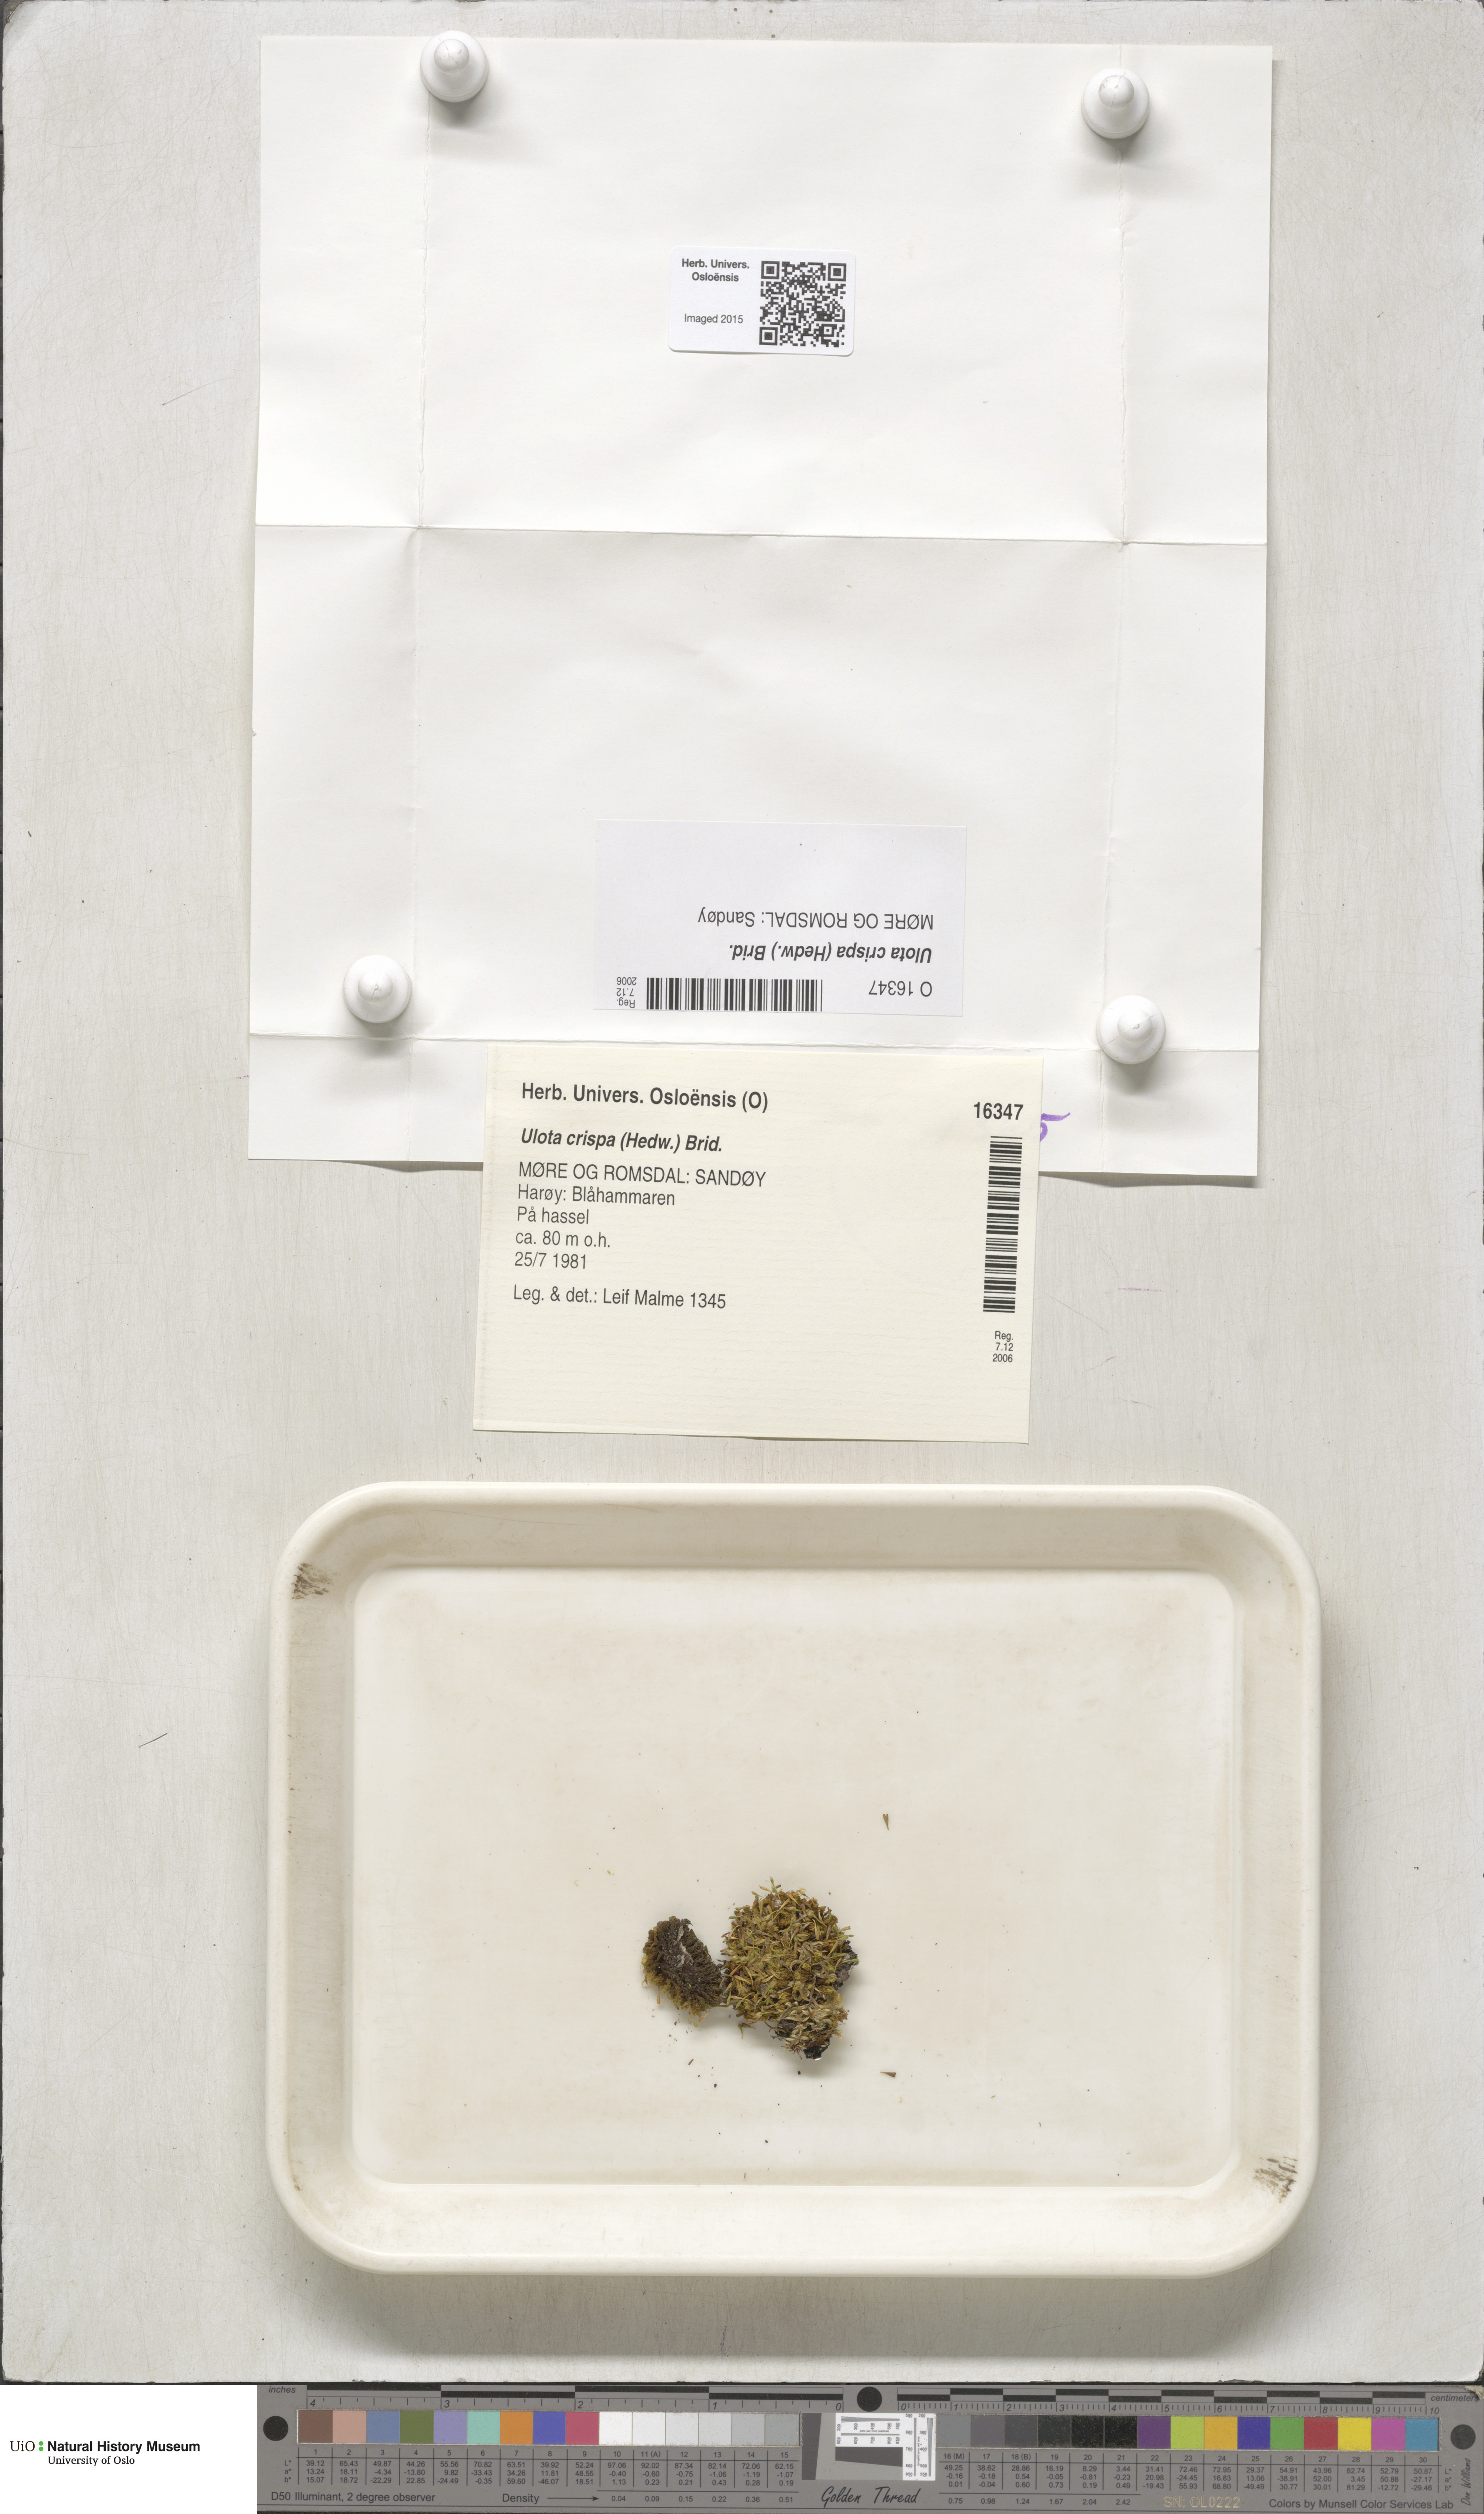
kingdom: Plantae
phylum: Bryophyta
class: Bryopsida
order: Orthotrichales
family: Orthotrichaceae
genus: Ulota
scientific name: Ulota crispa
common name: Crisped pincushion moss
